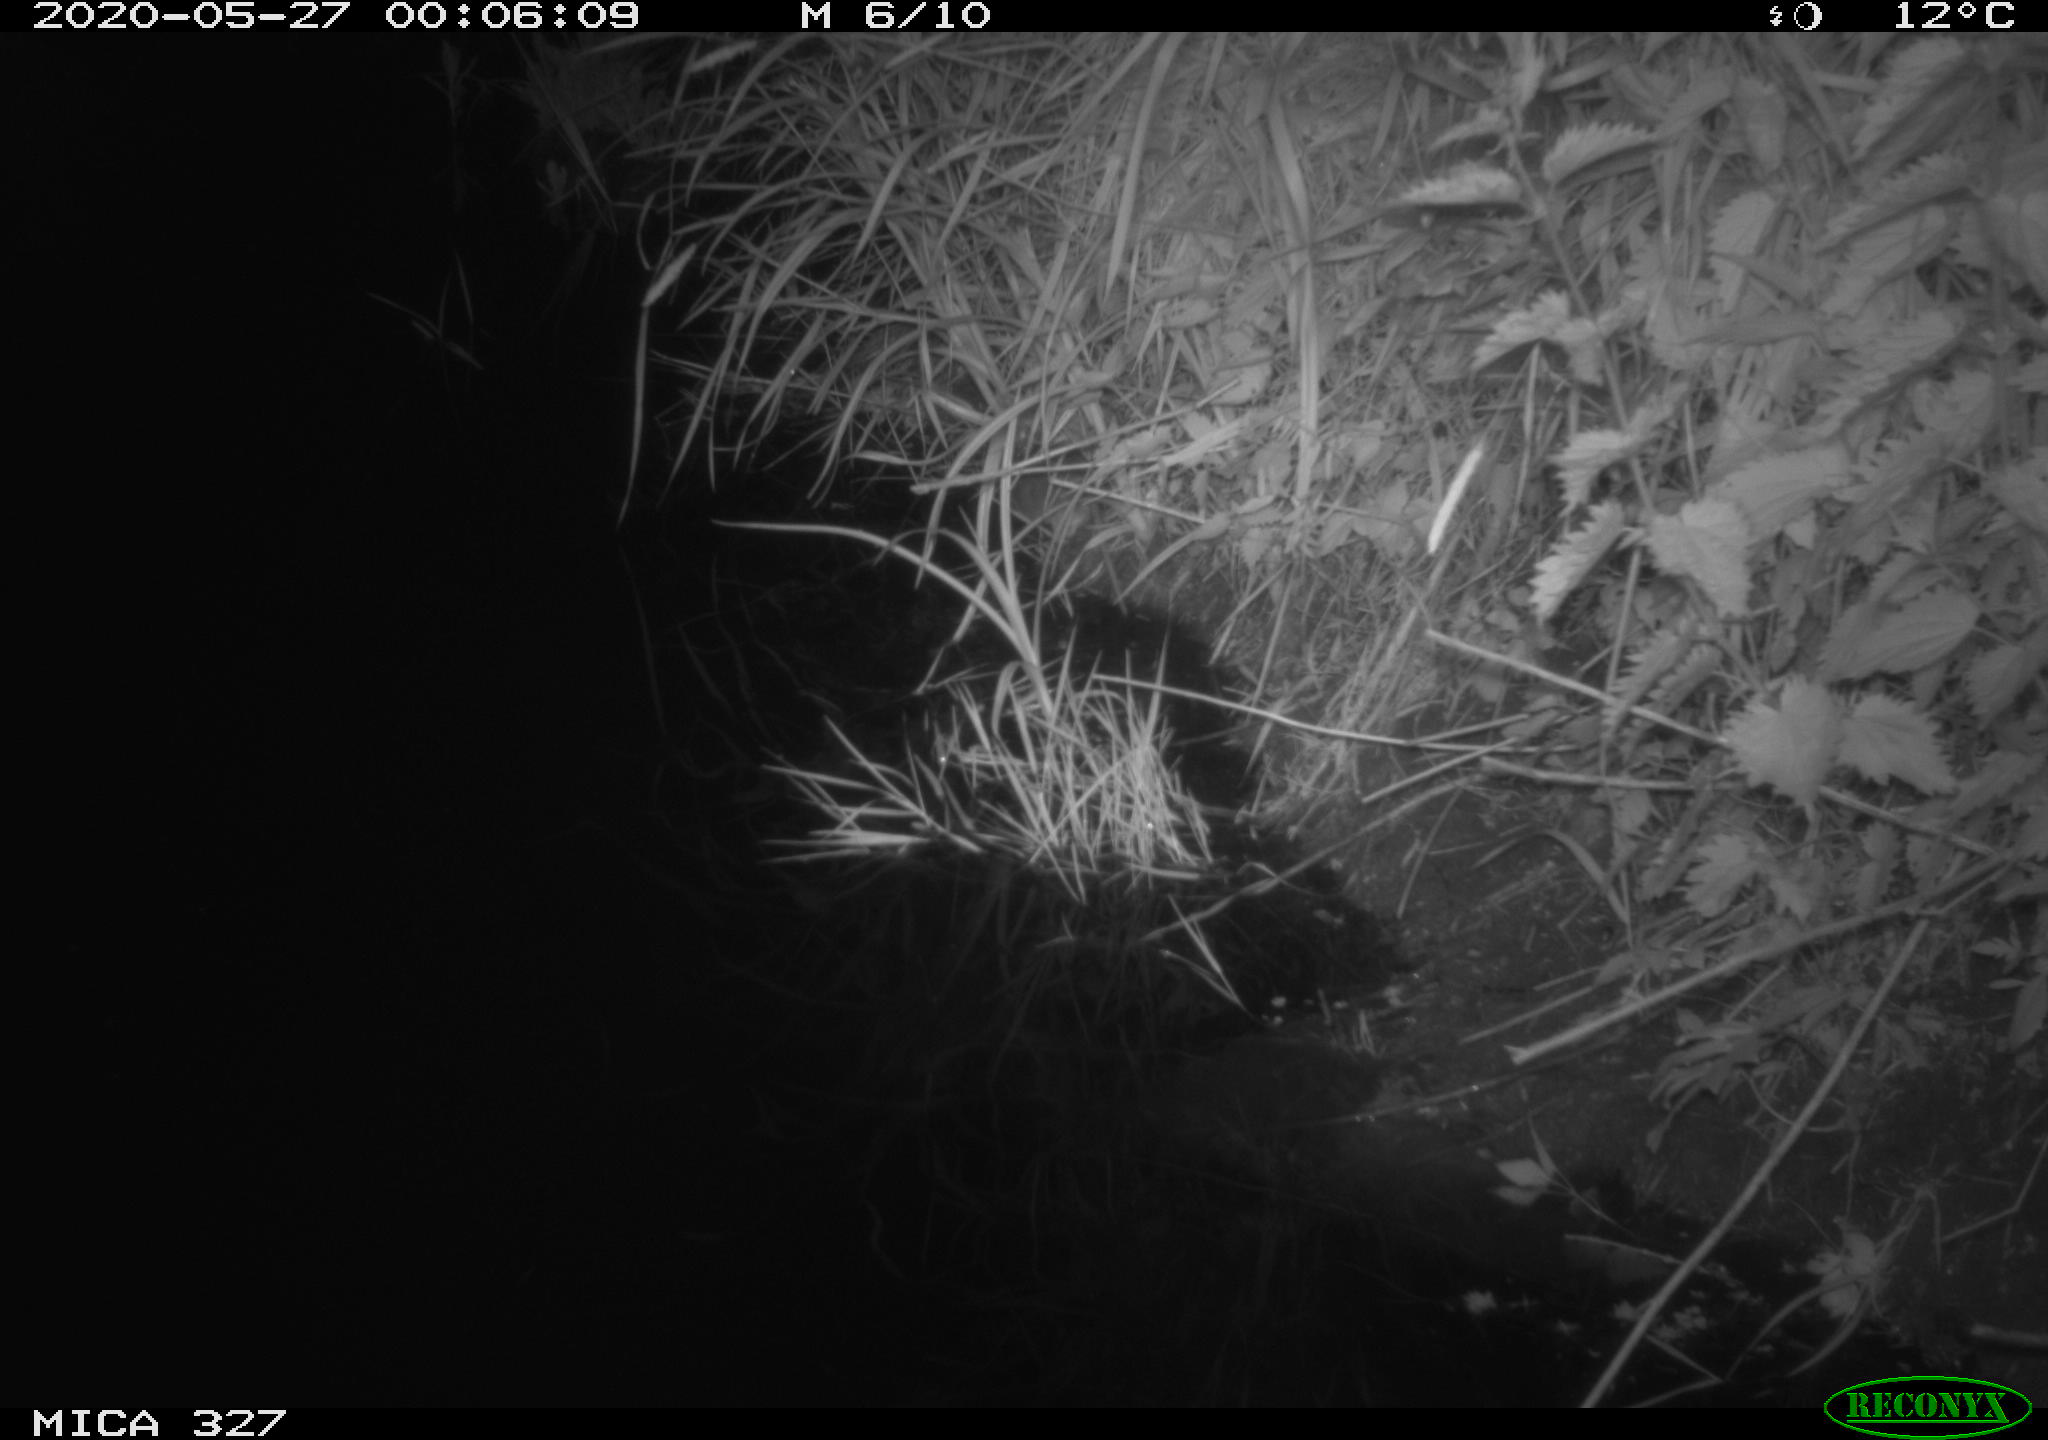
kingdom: Animalia
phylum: Chordata
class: Mammalia
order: Rodentia
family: Muridae
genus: Rattus
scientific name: Rattus norvegicus
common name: Brown rat
